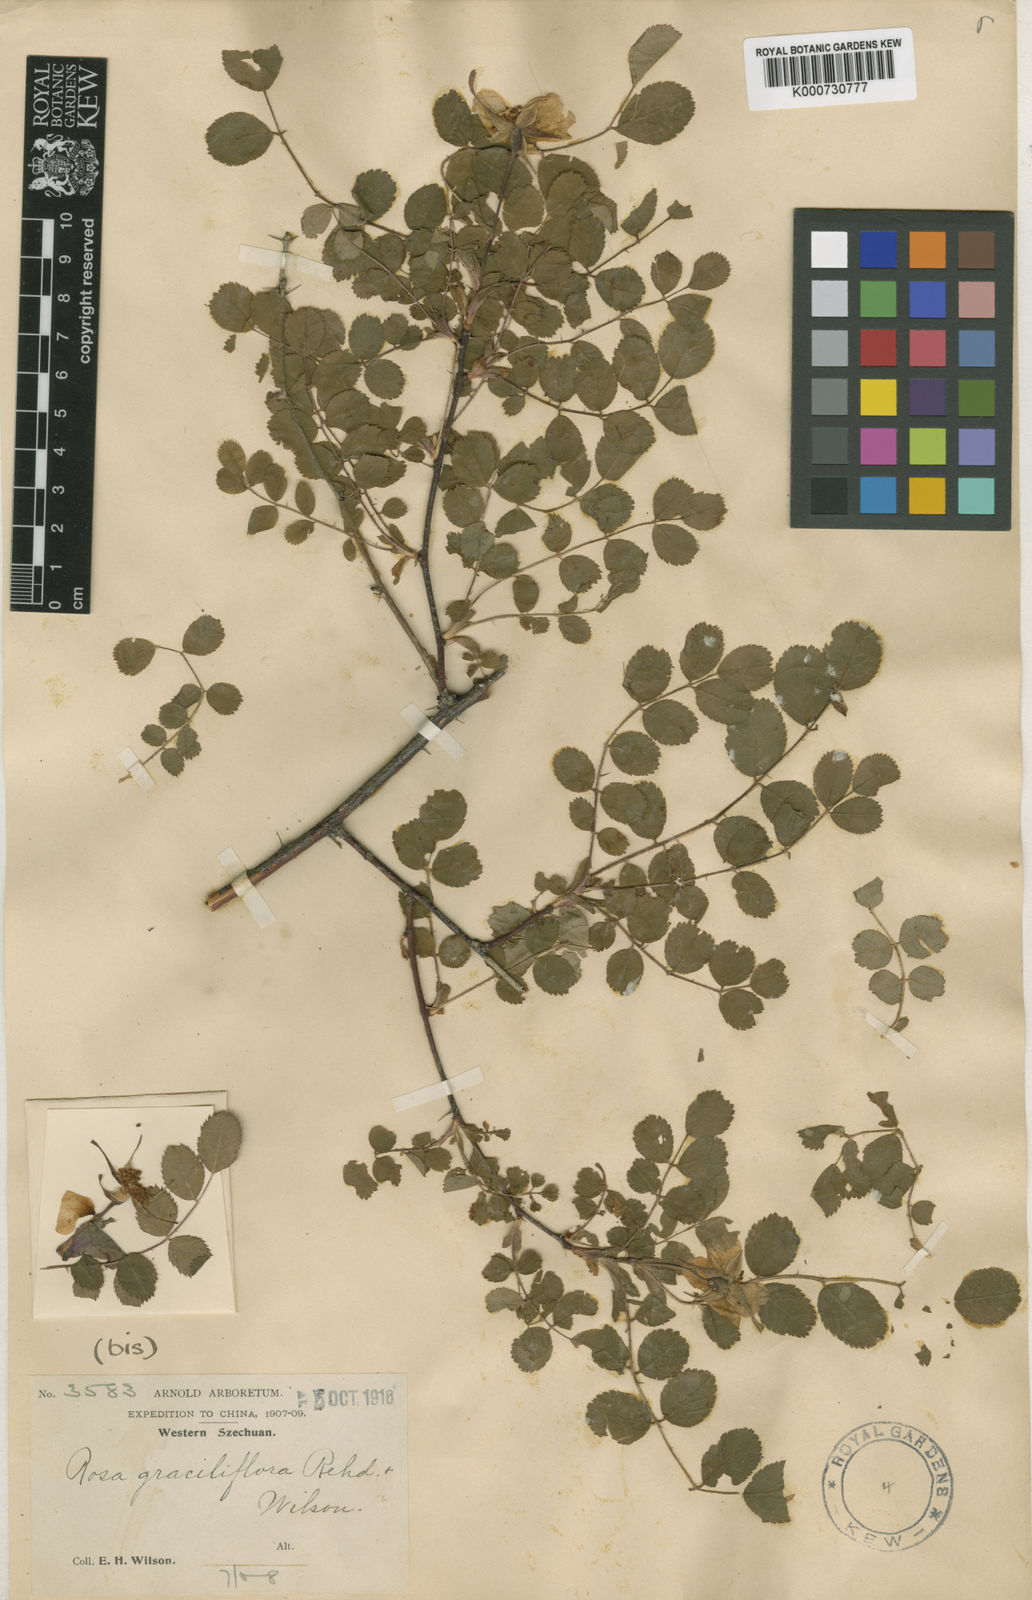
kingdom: Plantae
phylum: Tracheophyta
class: Magnoliopsida
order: Rosales
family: Rosaceae
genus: Rosa
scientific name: Rosa graciliflora
